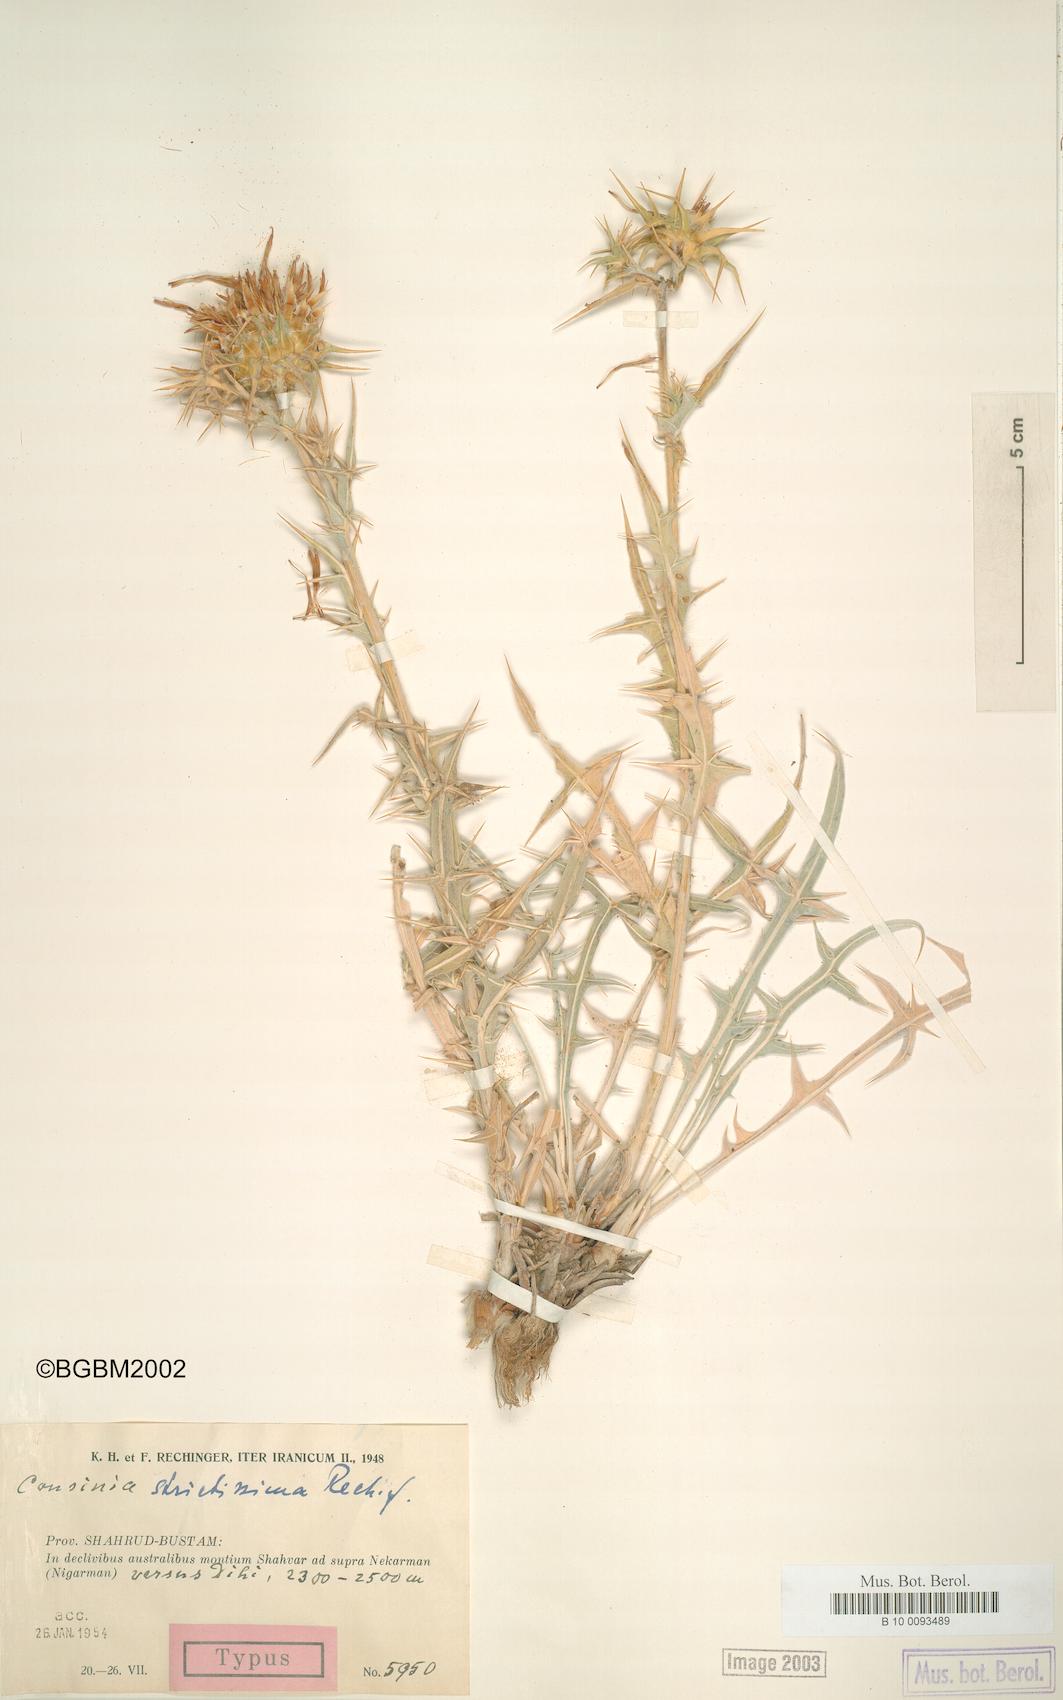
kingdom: Plantae
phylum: Tracheophyta
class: Magnoliopsida
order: Asterales
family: Asteraceae
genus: Cousinia
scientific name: Cousinia meshhedensis
